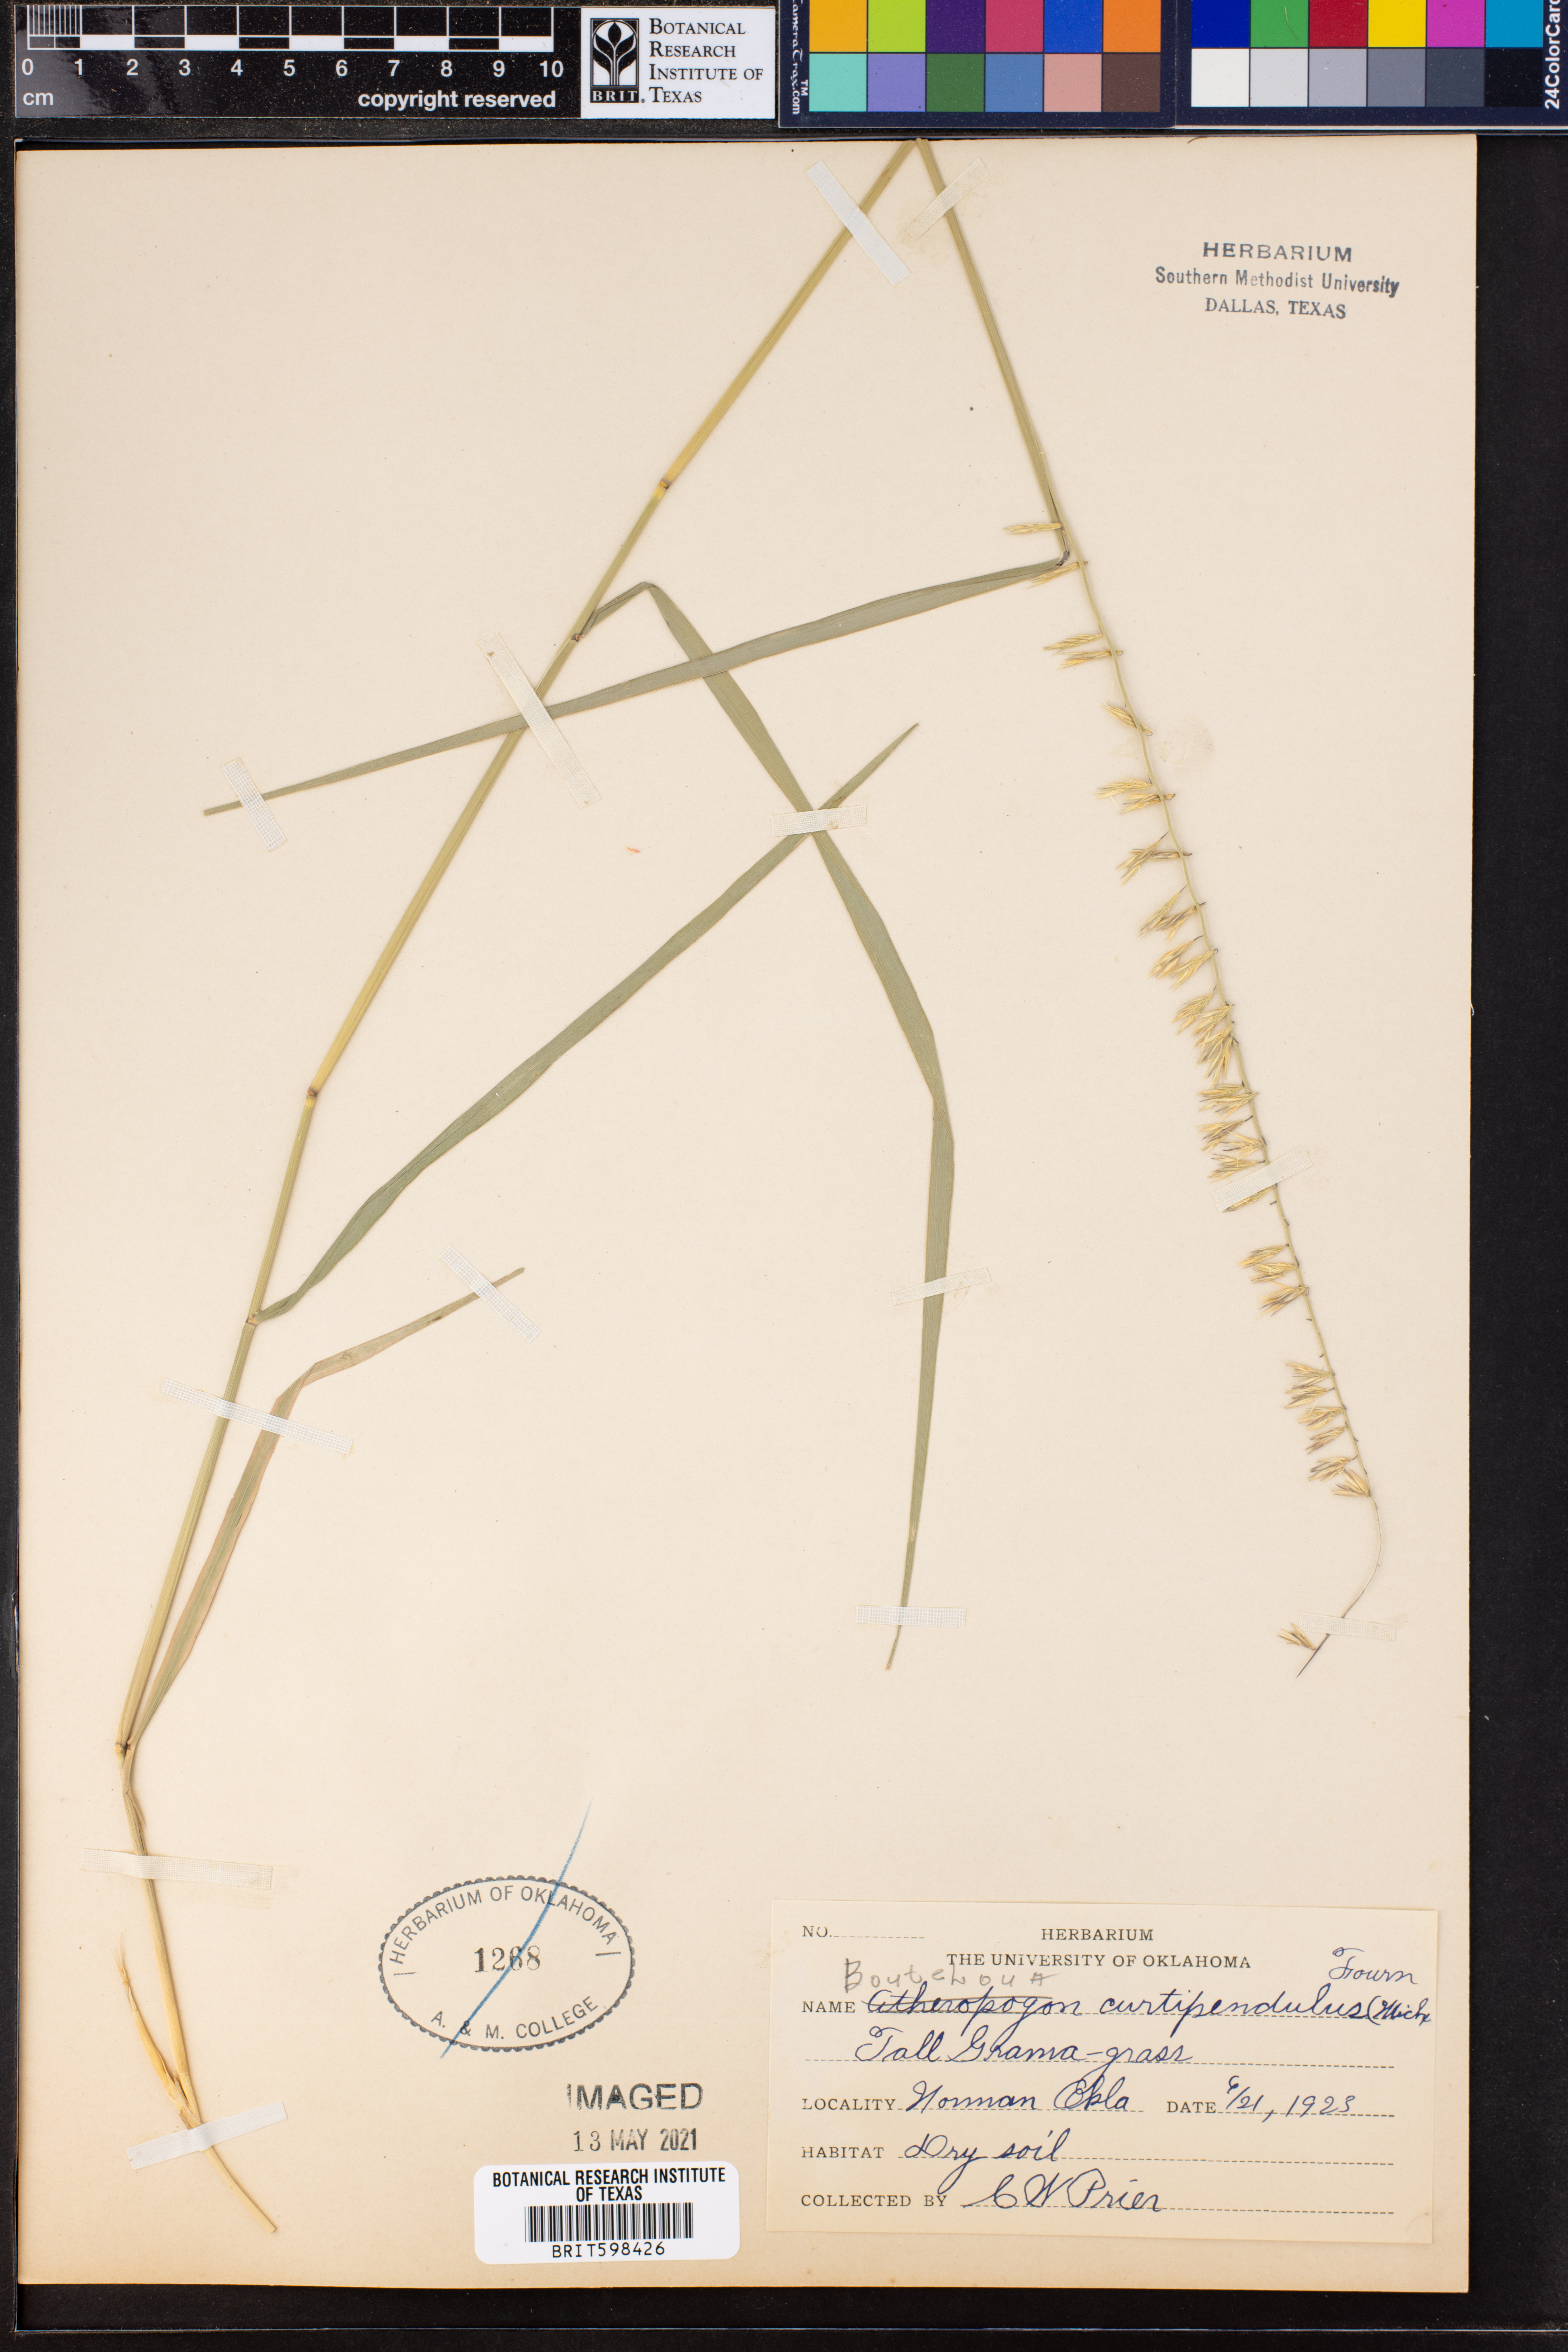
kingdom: Plantae
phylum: Tracheophyta
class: Liliopsida
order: Poales
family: Poaceae
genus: Bouteloua
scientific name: Bouteloua curtipendula
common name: Side-oats grama
